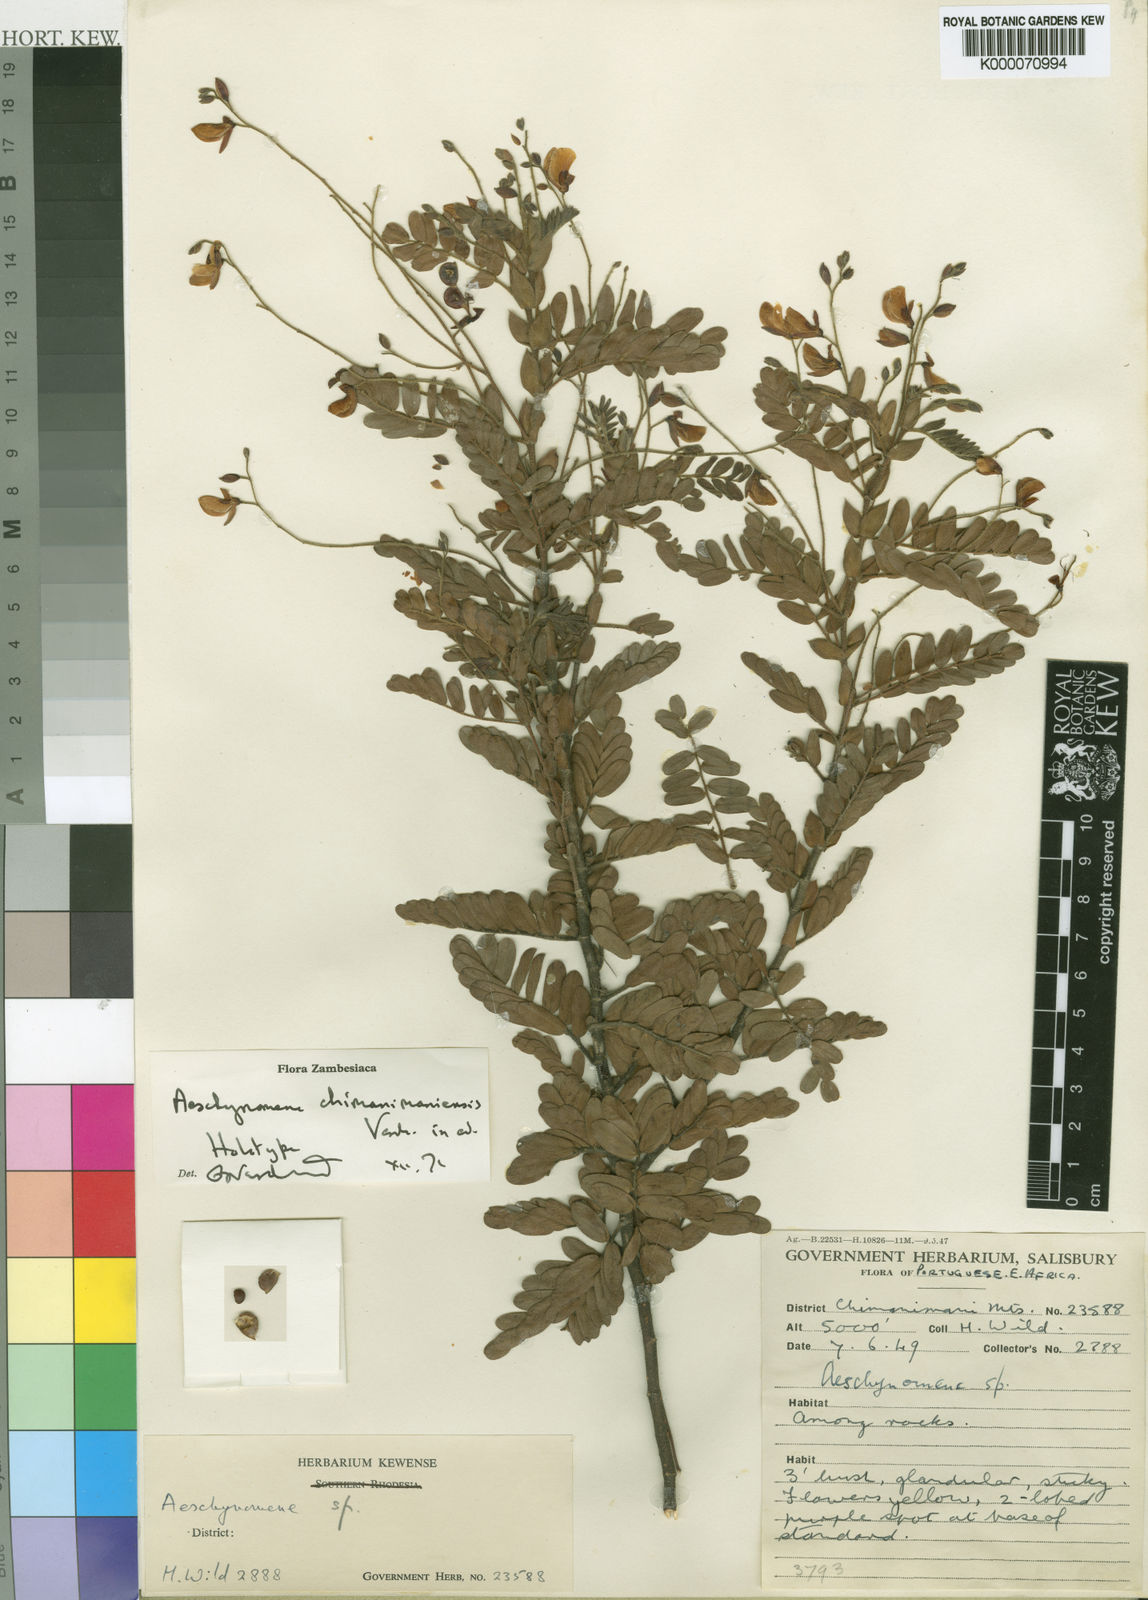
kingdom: Plantae
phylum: Tracheophyta
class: Magnoliopsida
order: Fabales
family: Fabaceae
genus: Aeschynomene
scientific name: Aeschynomene chimanimaniensis
